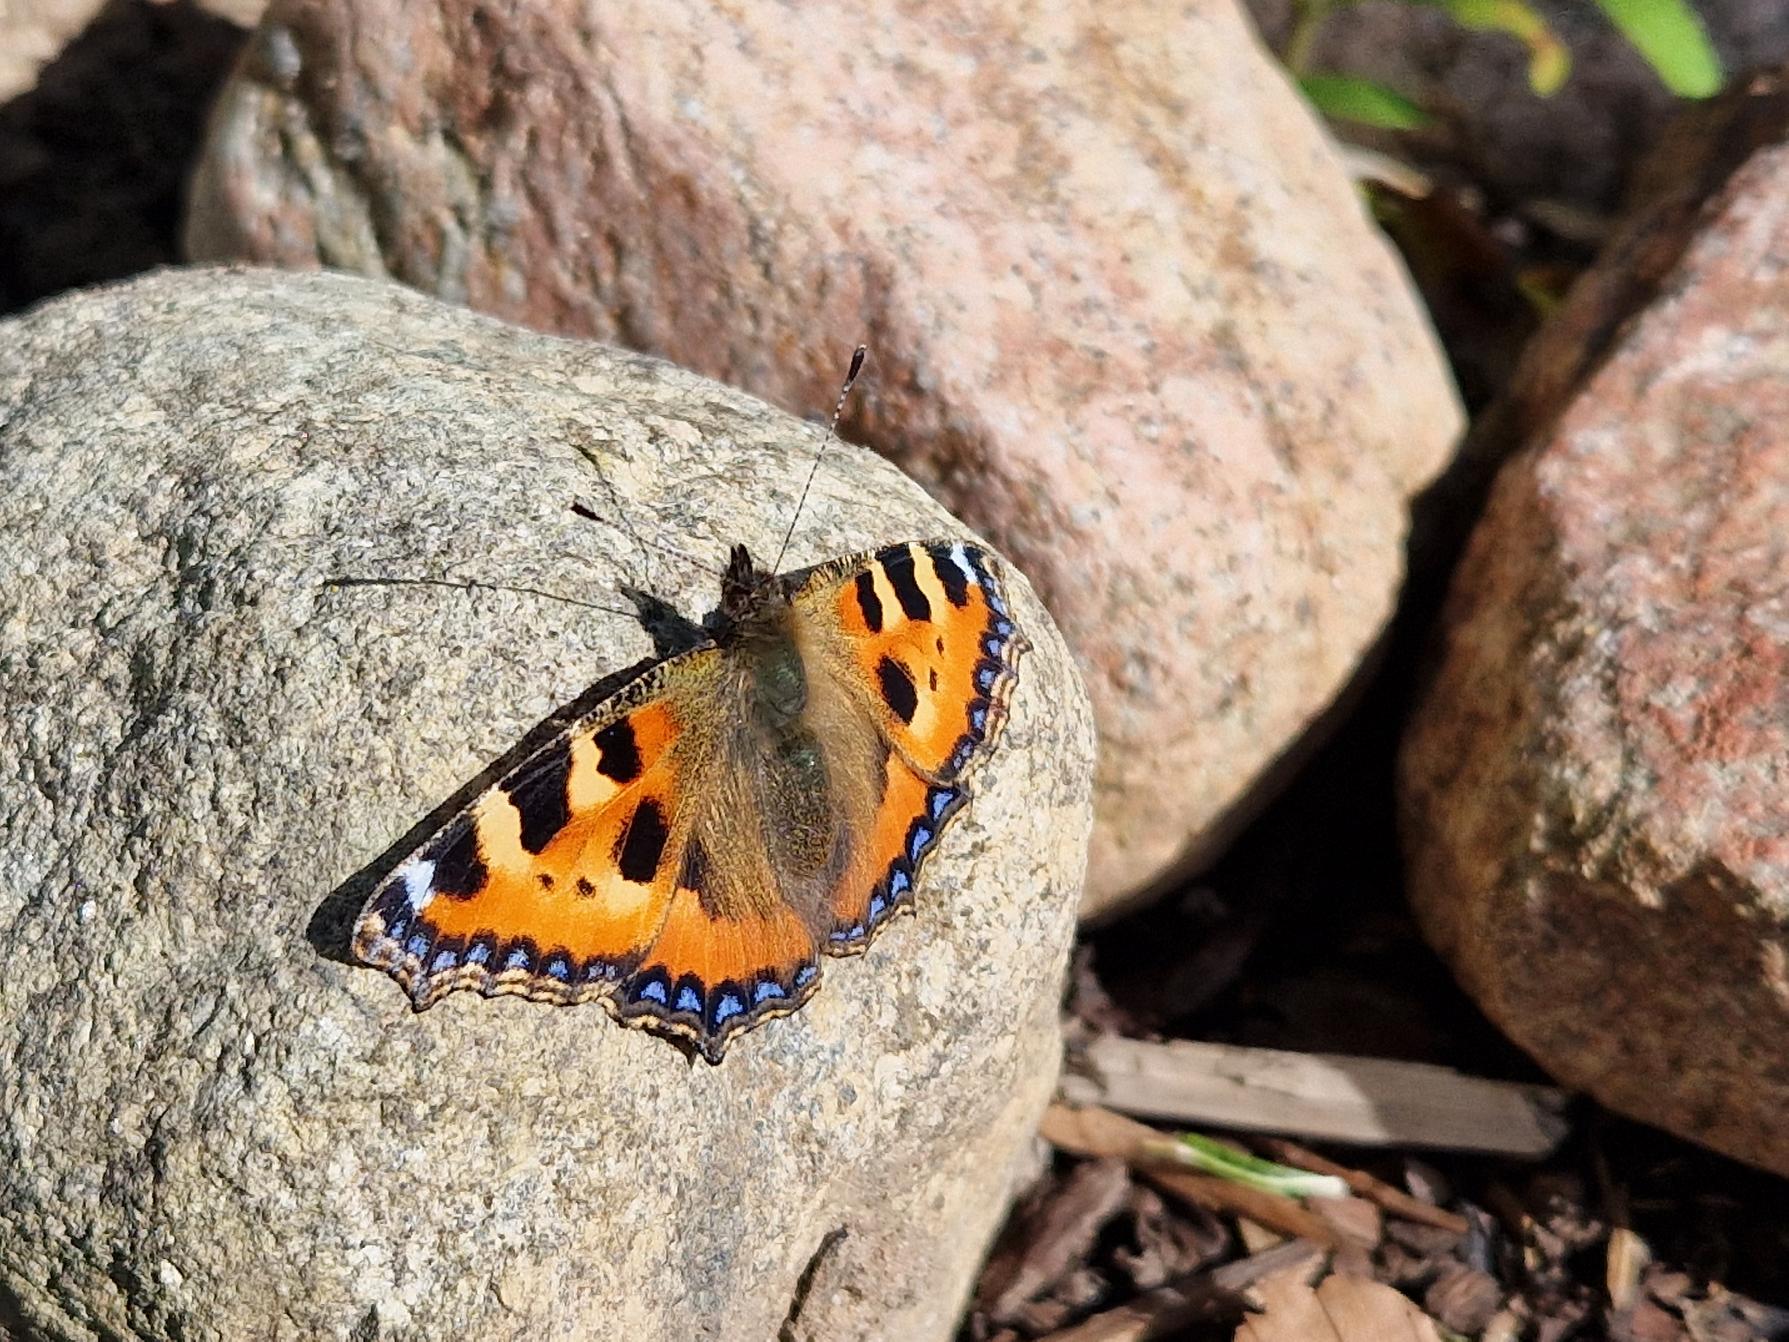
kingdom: Animalia
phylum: Arthropoda
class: Insecta
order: Lepidoptera
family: Nymphalidae
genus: Aglais
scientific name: Aglais urticae
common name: Nældens takvinge
